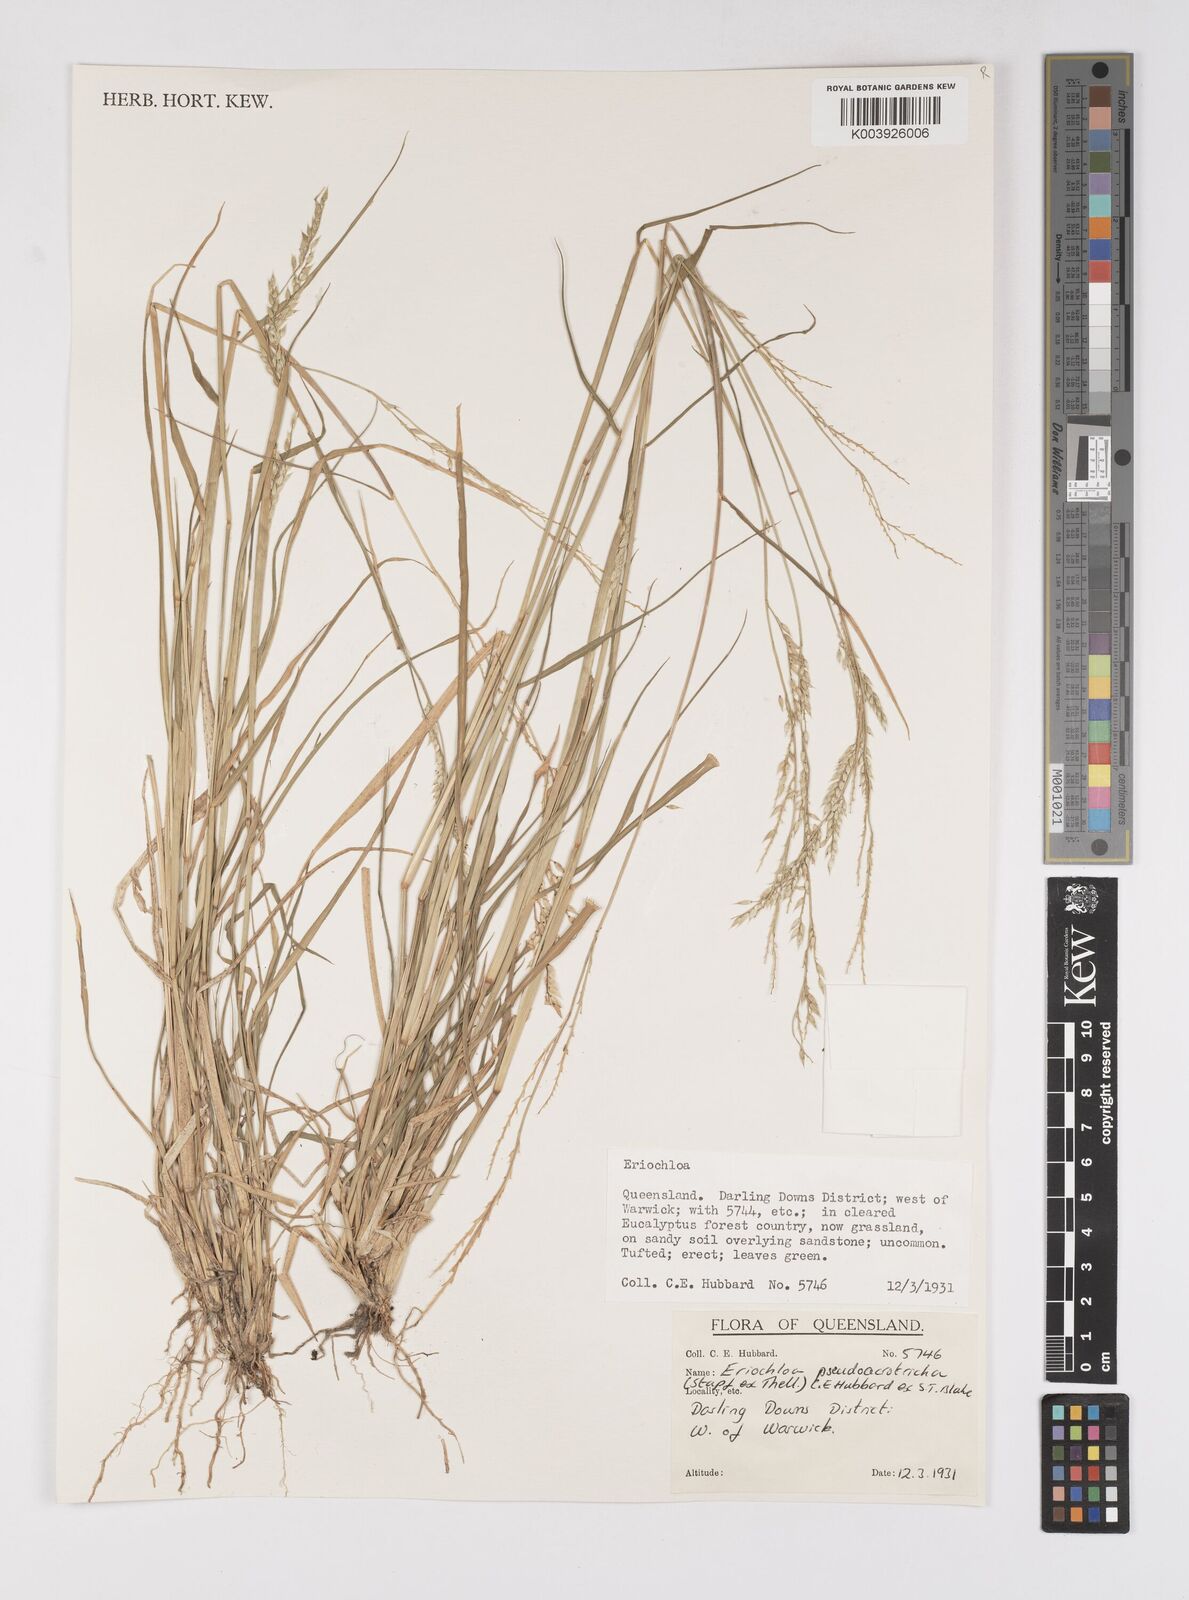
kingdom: Plantae
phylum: Tracheophyta
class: Liliopsida
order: Poales
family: Poaceae
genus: Eriochloa
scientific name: Eriochloa pseudoacrotricha
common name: Perennial cup-grass
